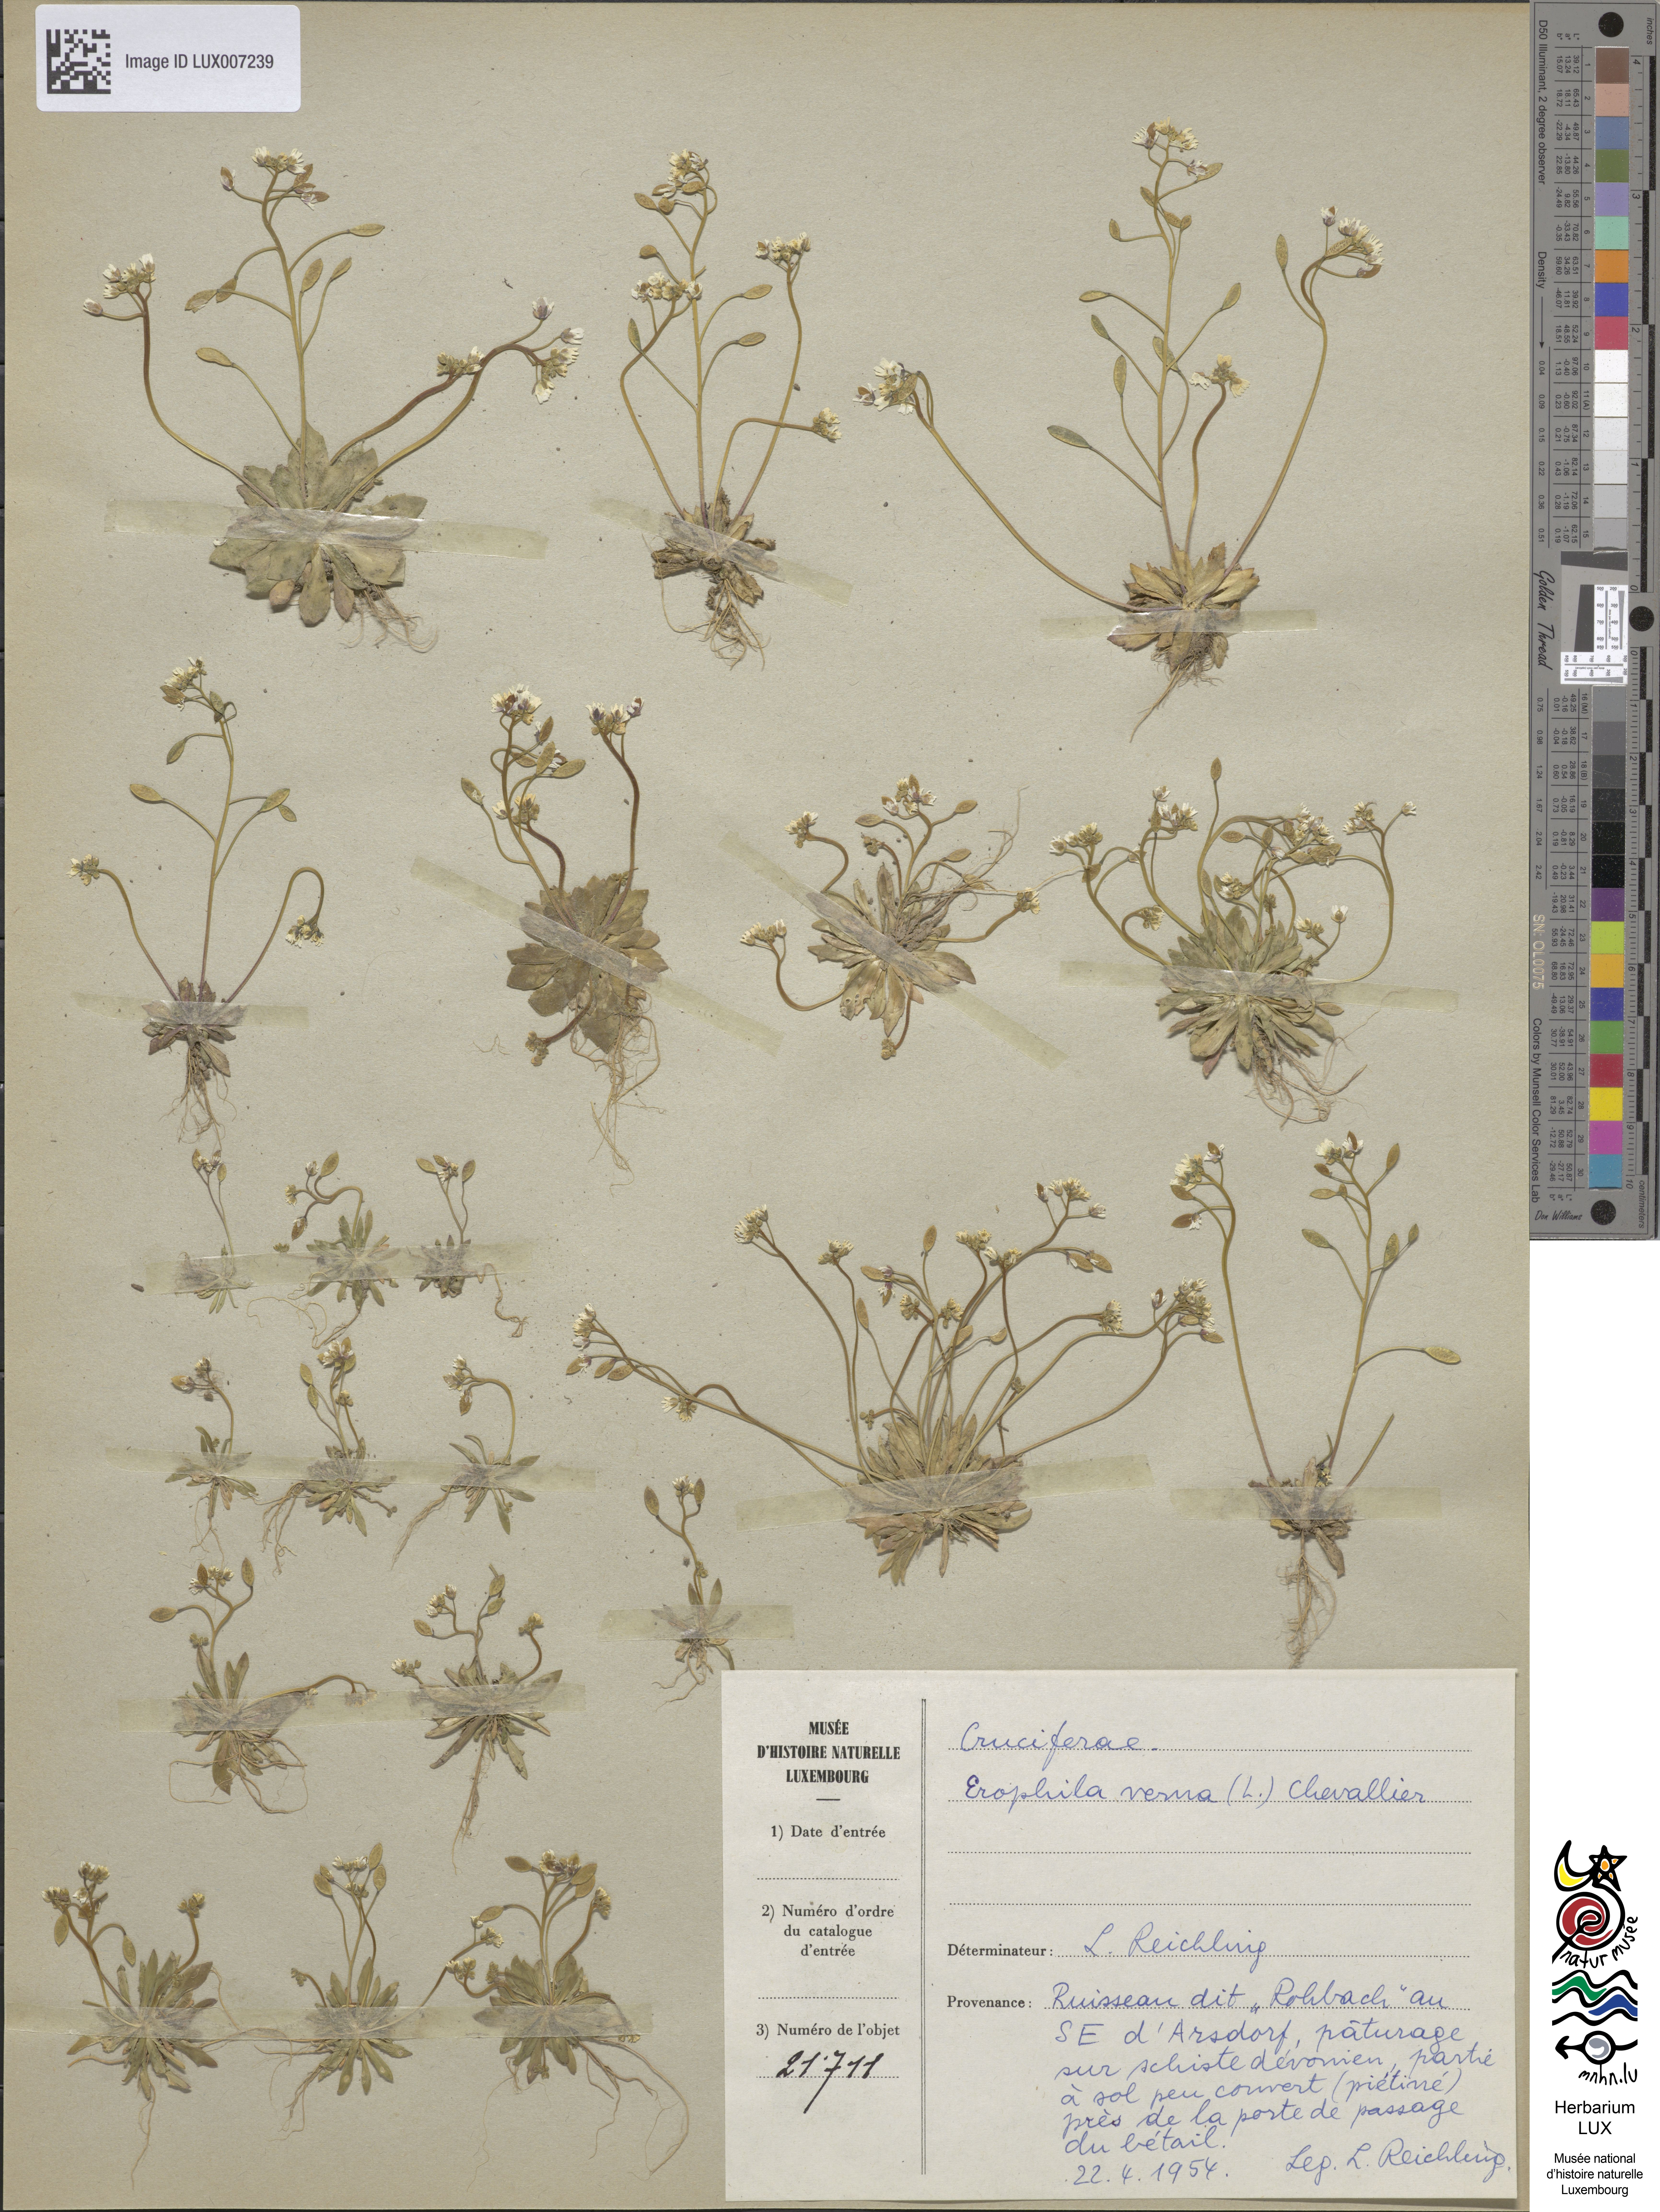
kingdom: Plantae
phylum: Tracheophyta
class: Magnoliopsida
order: Brassicales
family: Brassicaceae
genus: Draba
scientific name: Draba verna
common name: Spring draba
